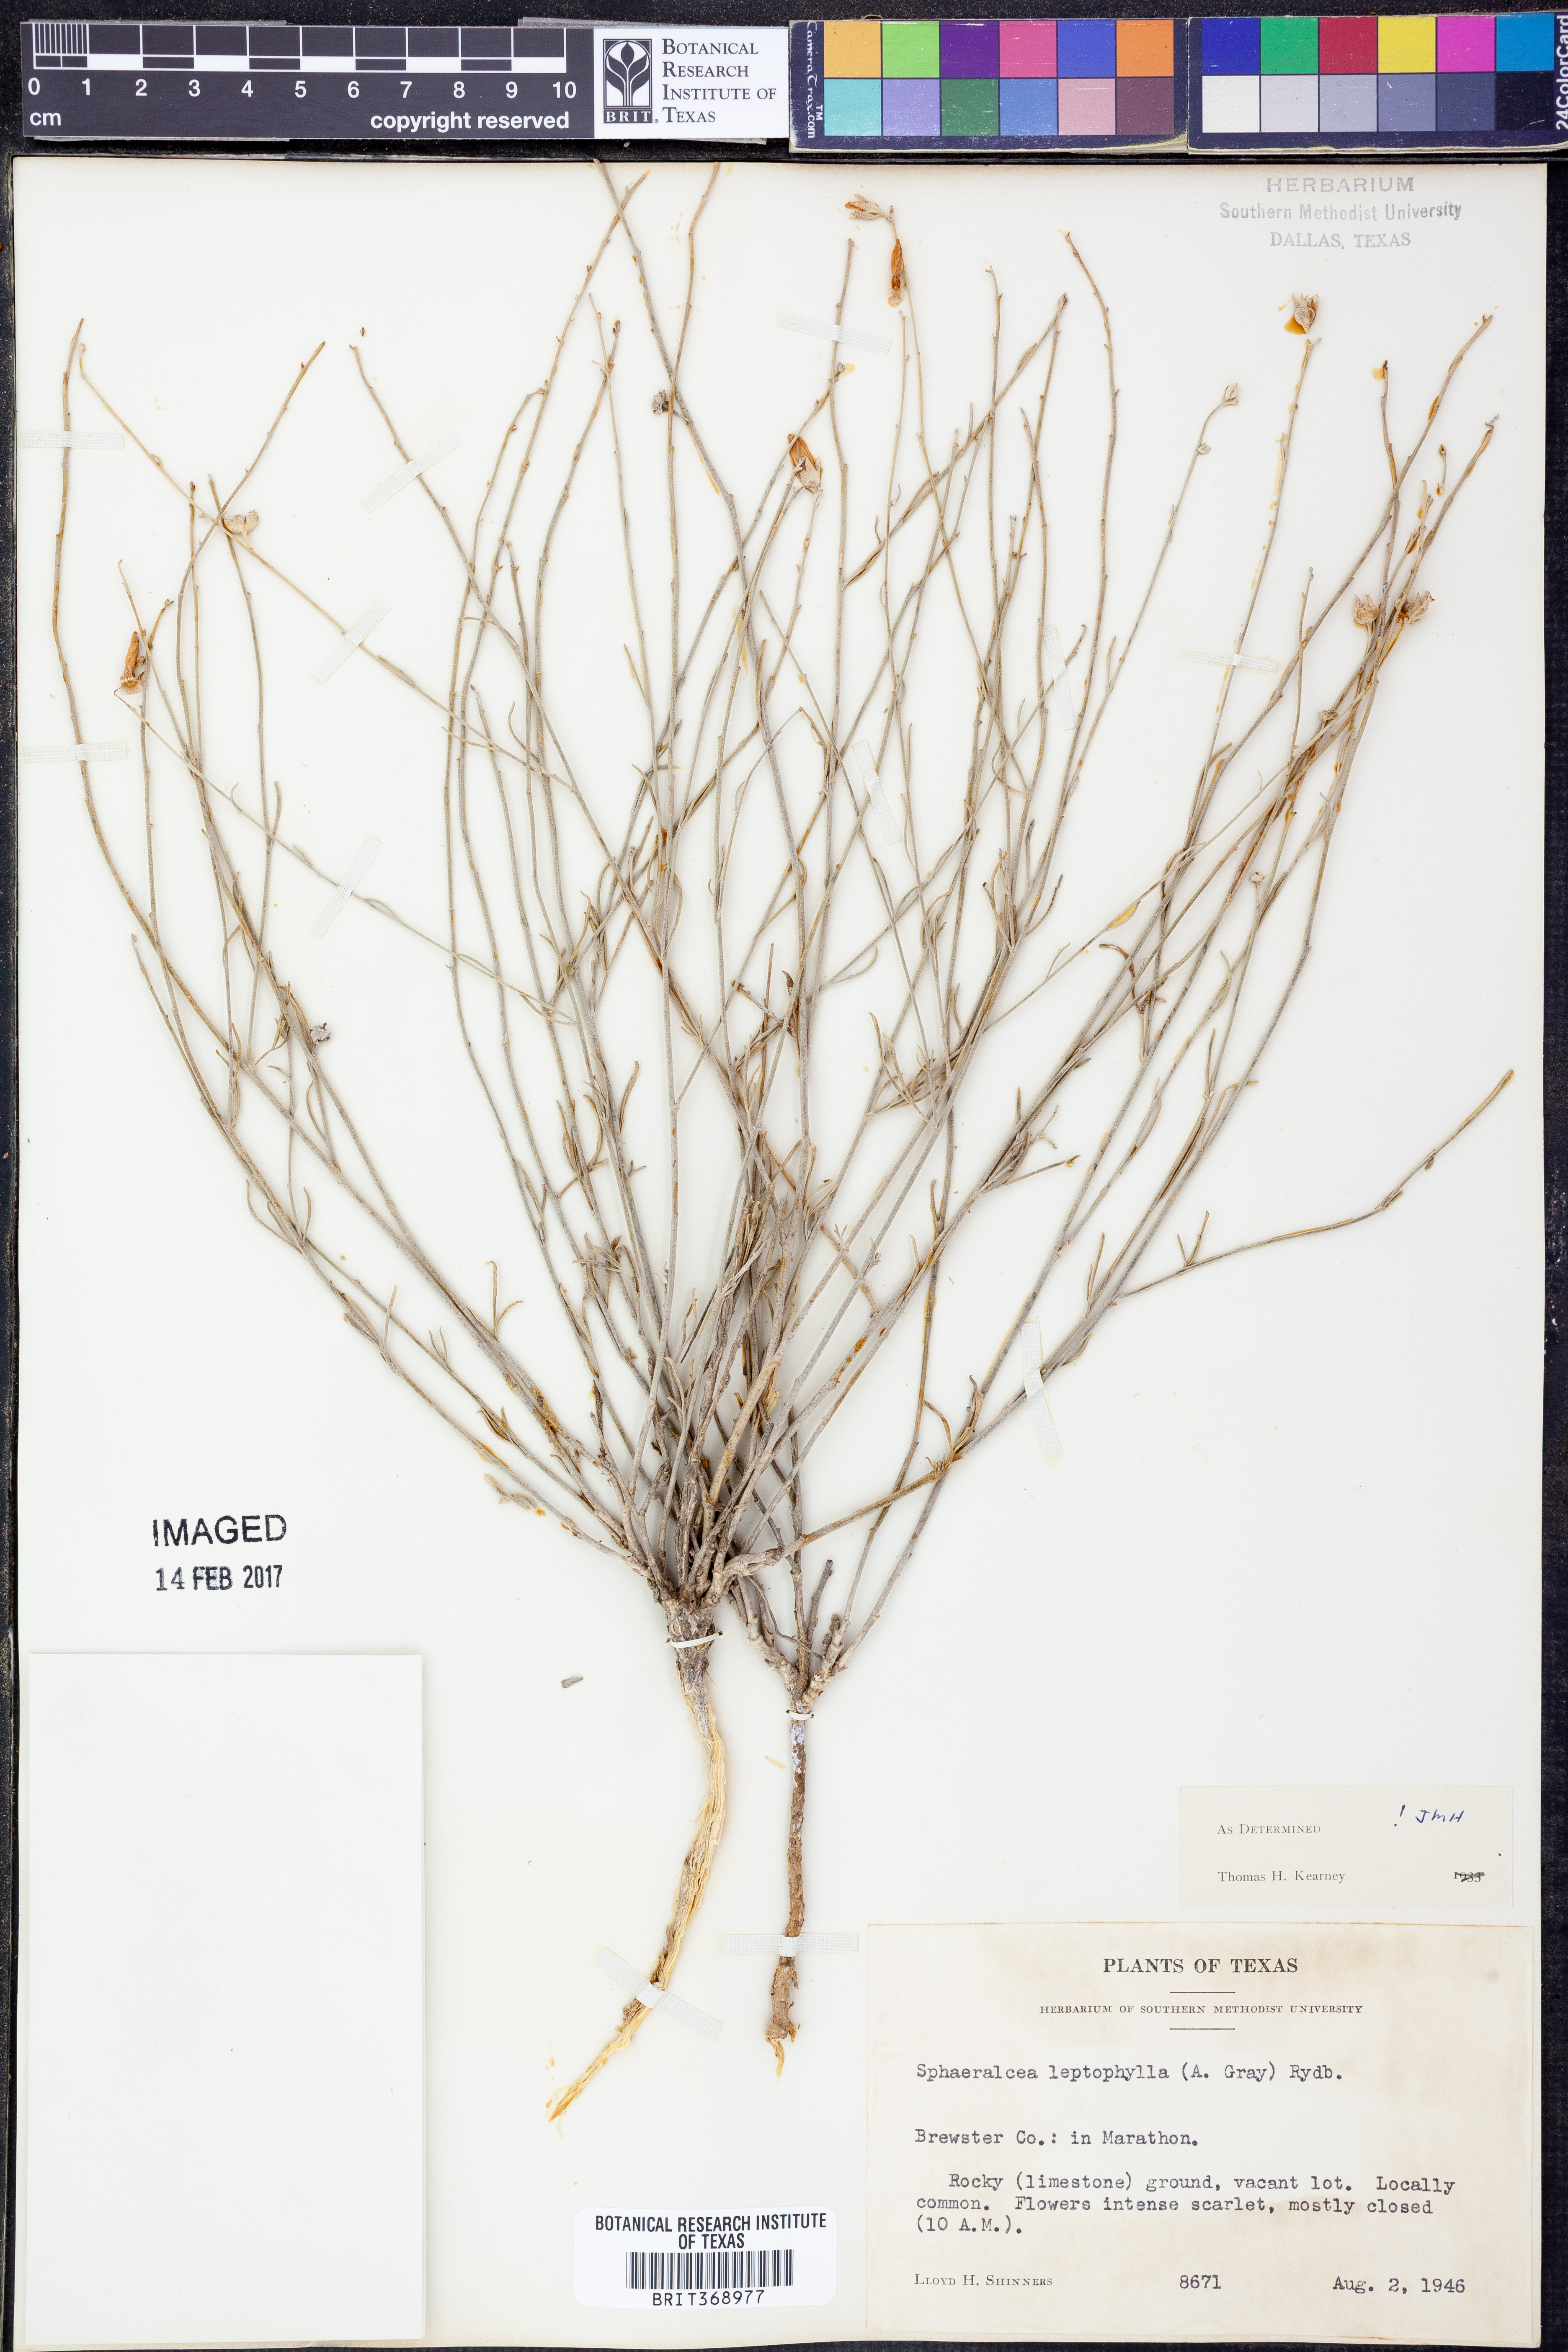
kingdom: Plantae
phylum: Tracheophyta
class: Magnoliopsida
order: Malvales
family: Malvaceae
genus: Sphaeralcea
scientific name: Sphaeralcea leptophylla
